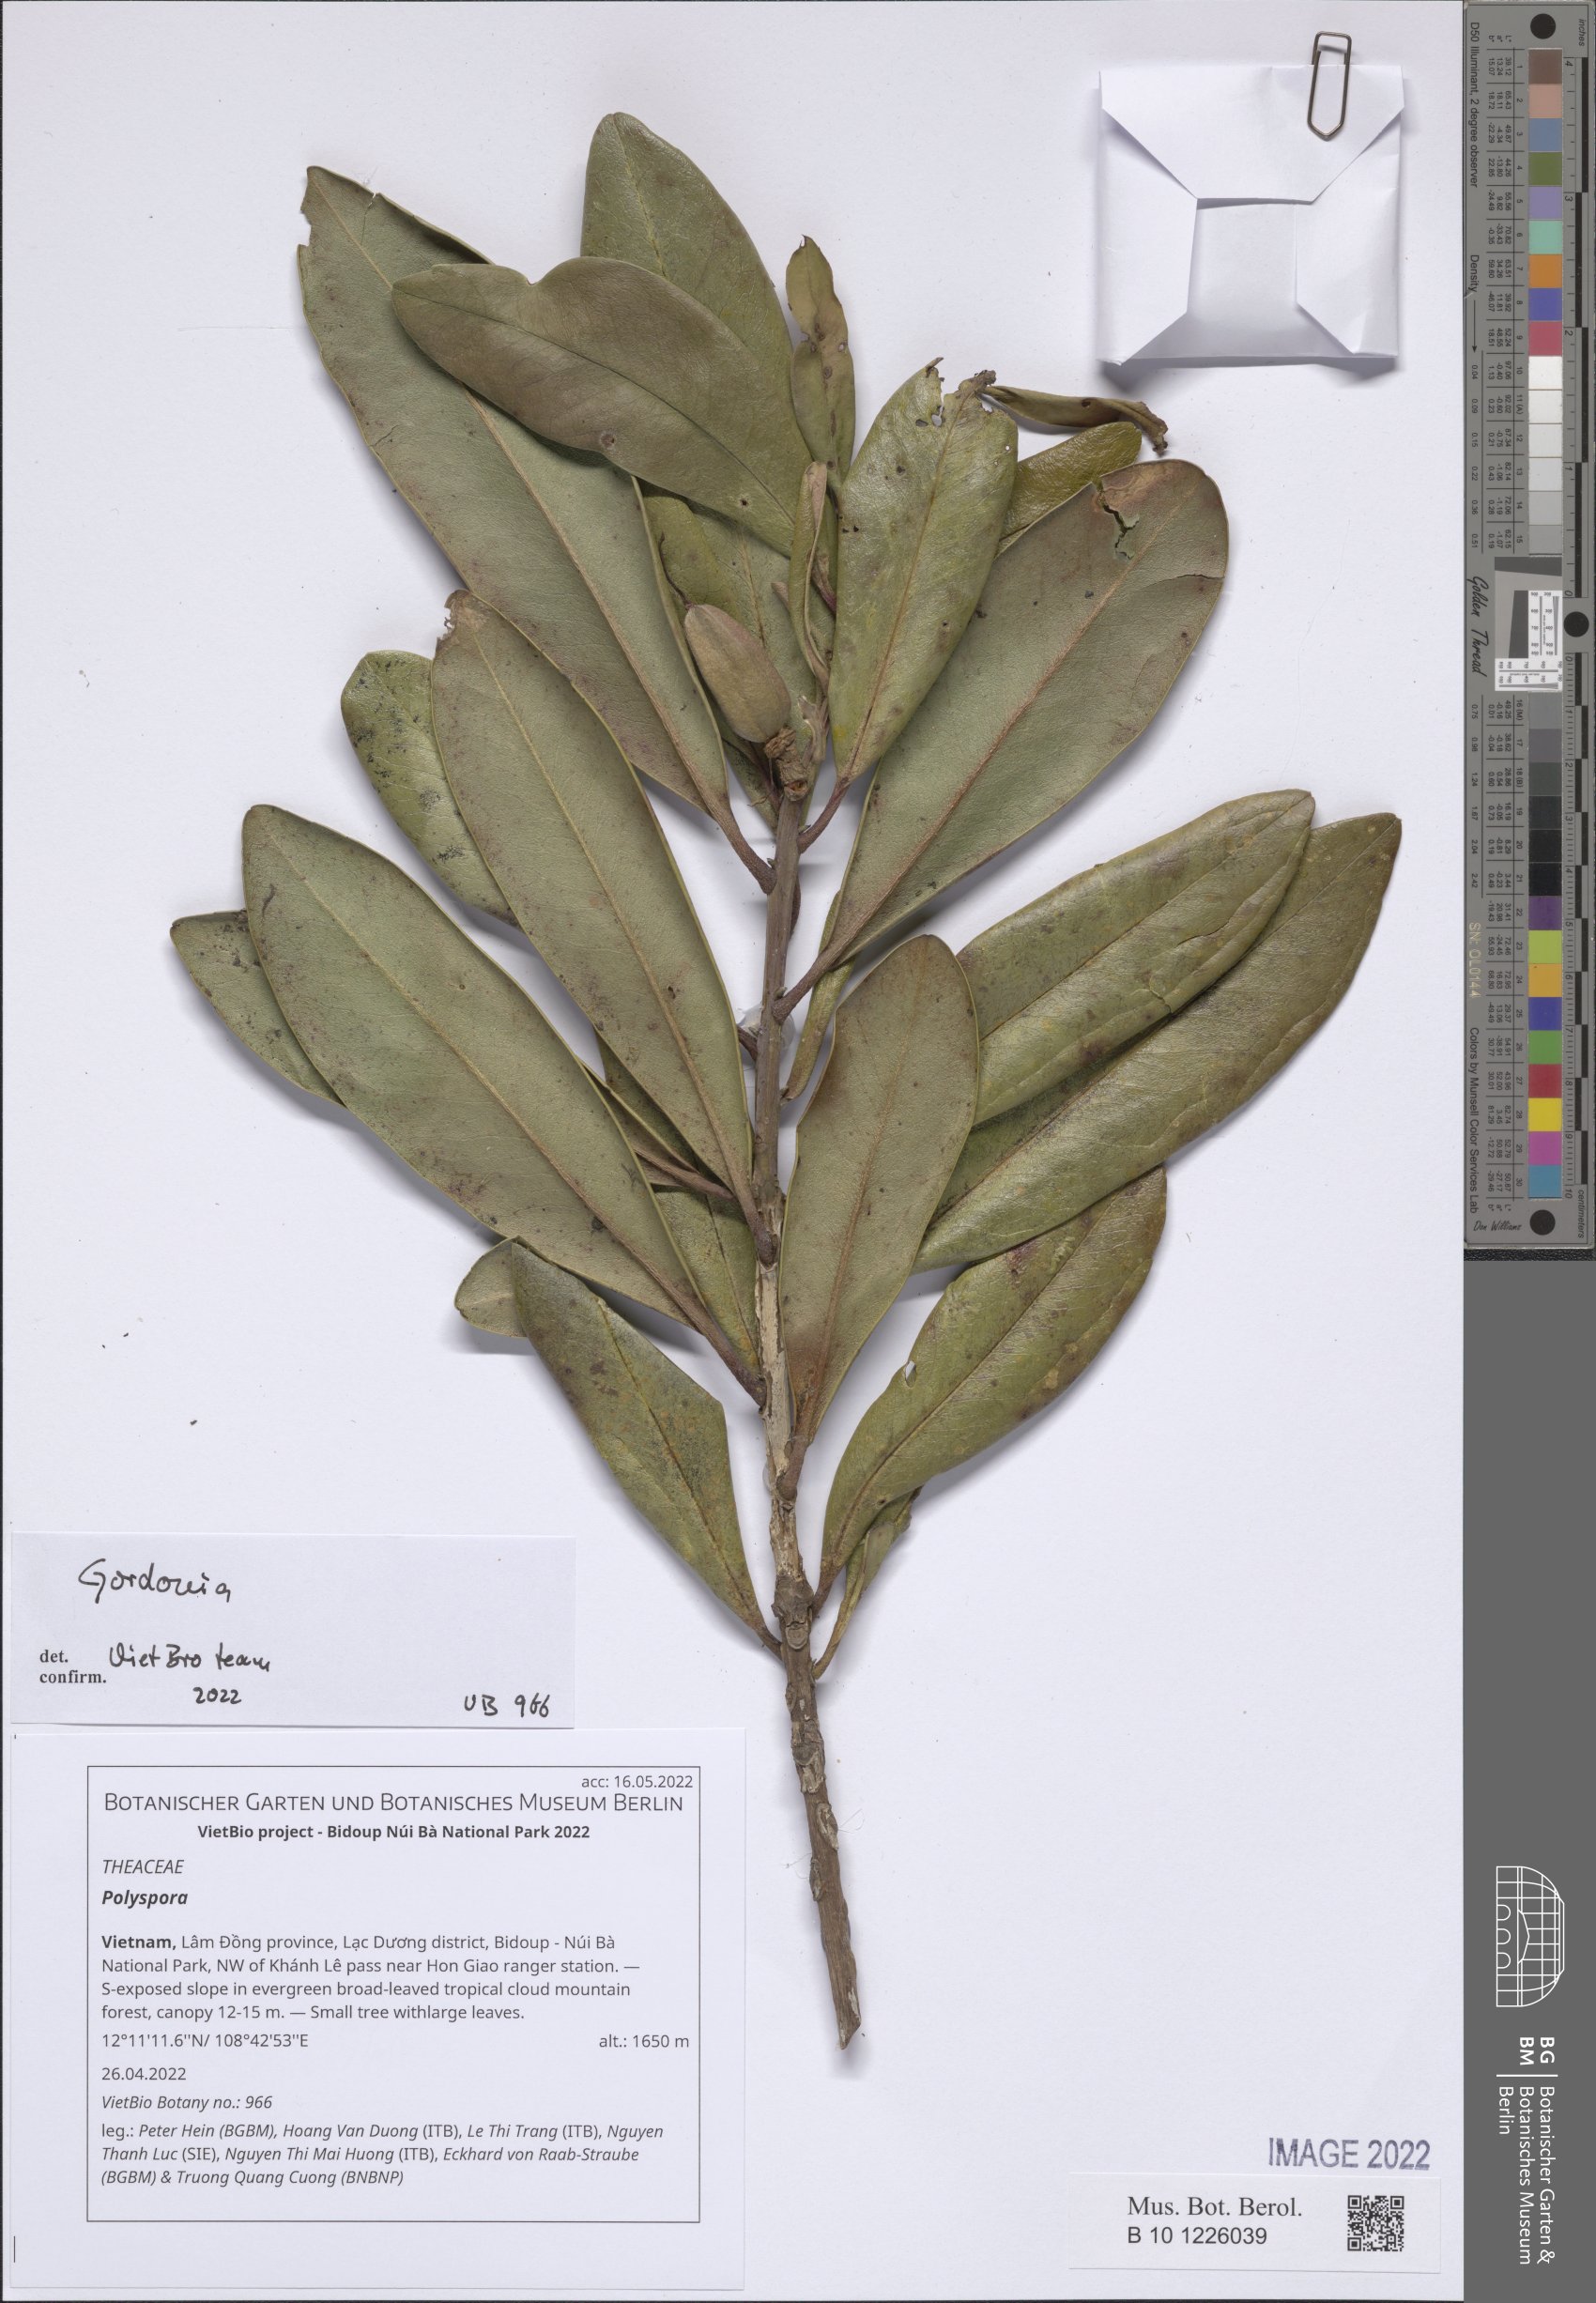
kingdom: Plantae
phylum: Tracheophyta
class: Magnoliopsida
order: Ericales
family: Theaceae
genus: Polyspora
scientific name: Polyspora
